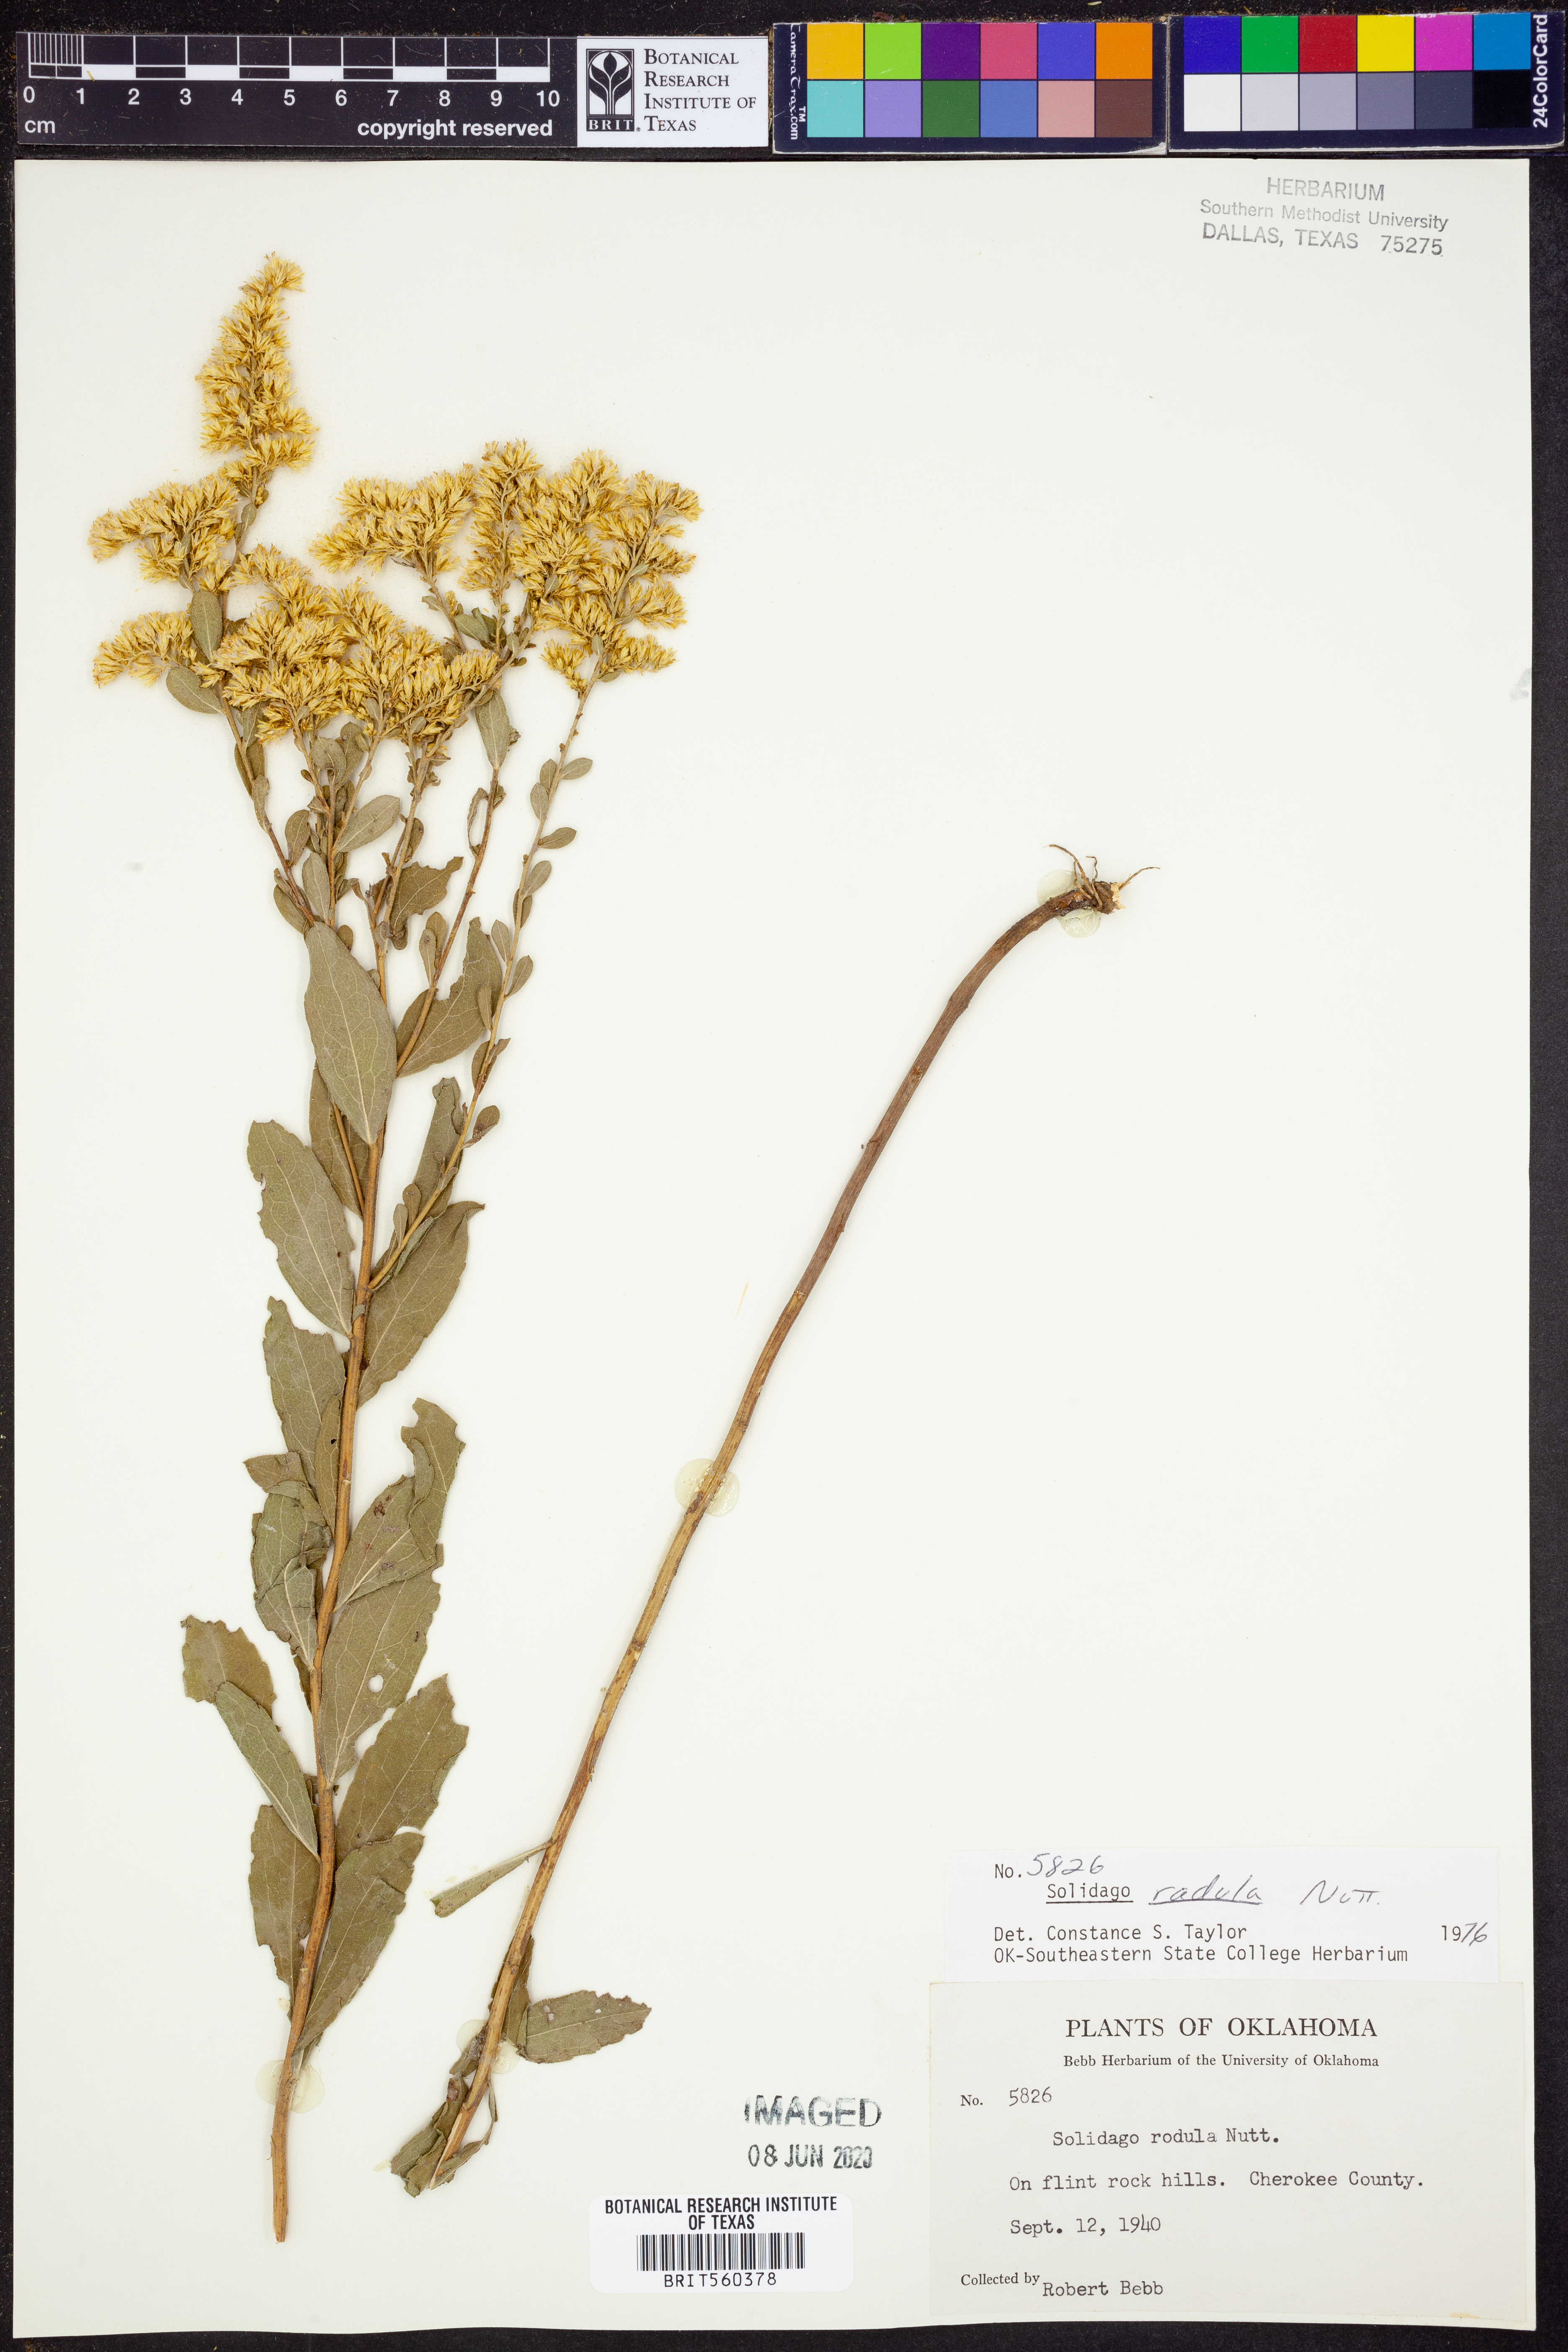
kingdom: Plantae
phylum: Tracheophyta
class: Magnoliopsida
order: Asterales
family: Asteraceae
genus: Solidago
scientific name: Solidago radula
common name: Western rough goldenrod
